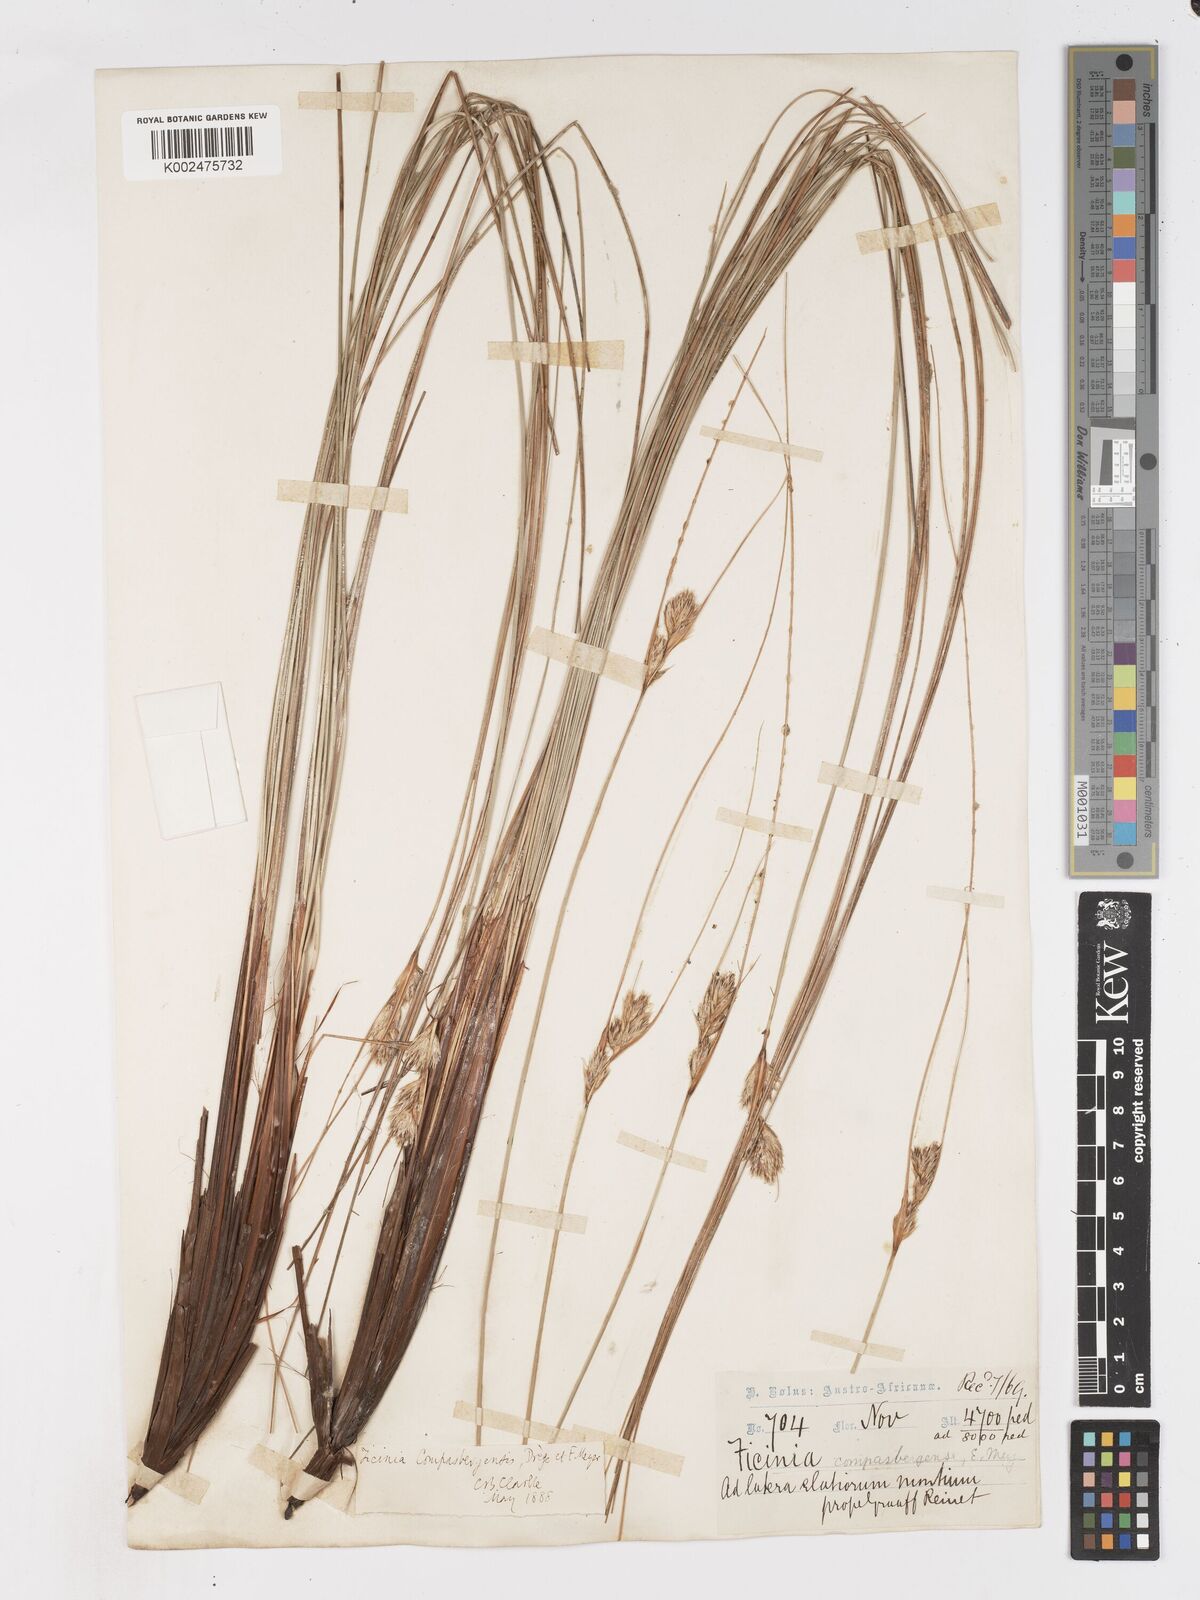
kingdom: Plantae
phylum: Tracheophyta
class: Liliopsida
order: Poales
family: Cyperaceae
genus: Ficinia
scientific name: Ficinia compasbergensis
